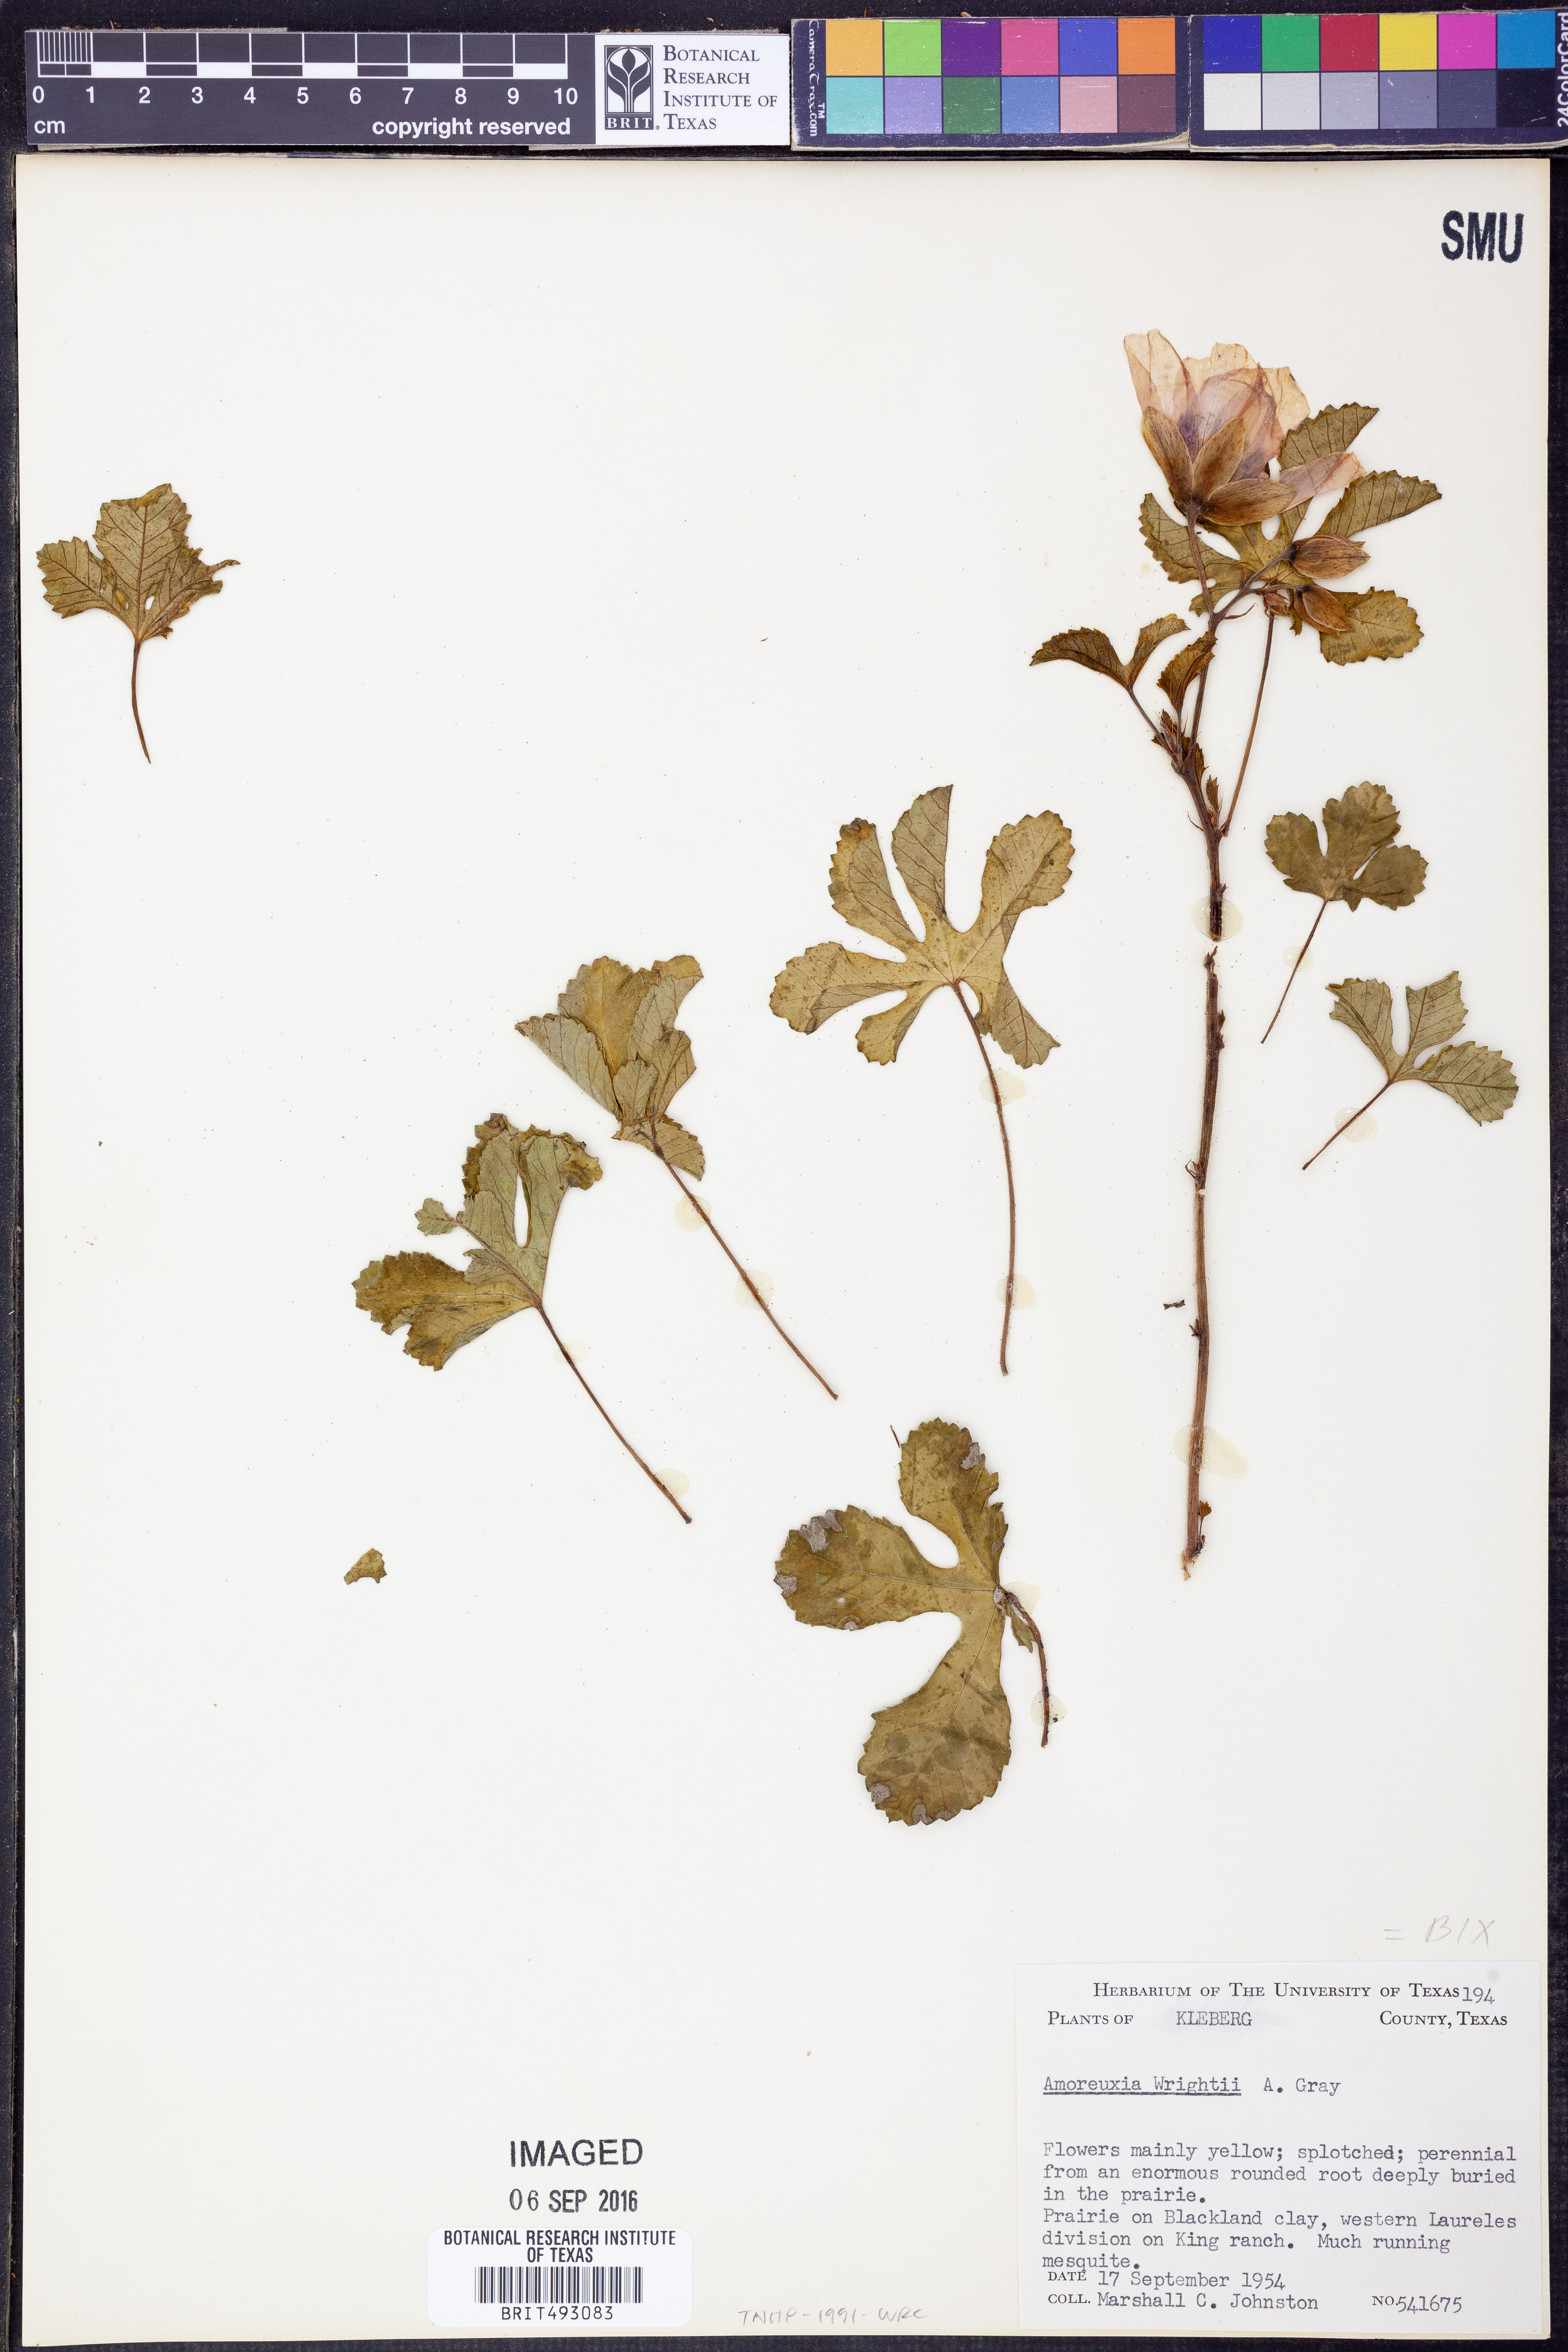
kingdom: Plantae
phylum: Tracheophyta
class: Magnoliopsida
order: Malvales
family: Cochlospermaceae
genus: Cochlospermum
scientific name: Cochlospermum wrightii
